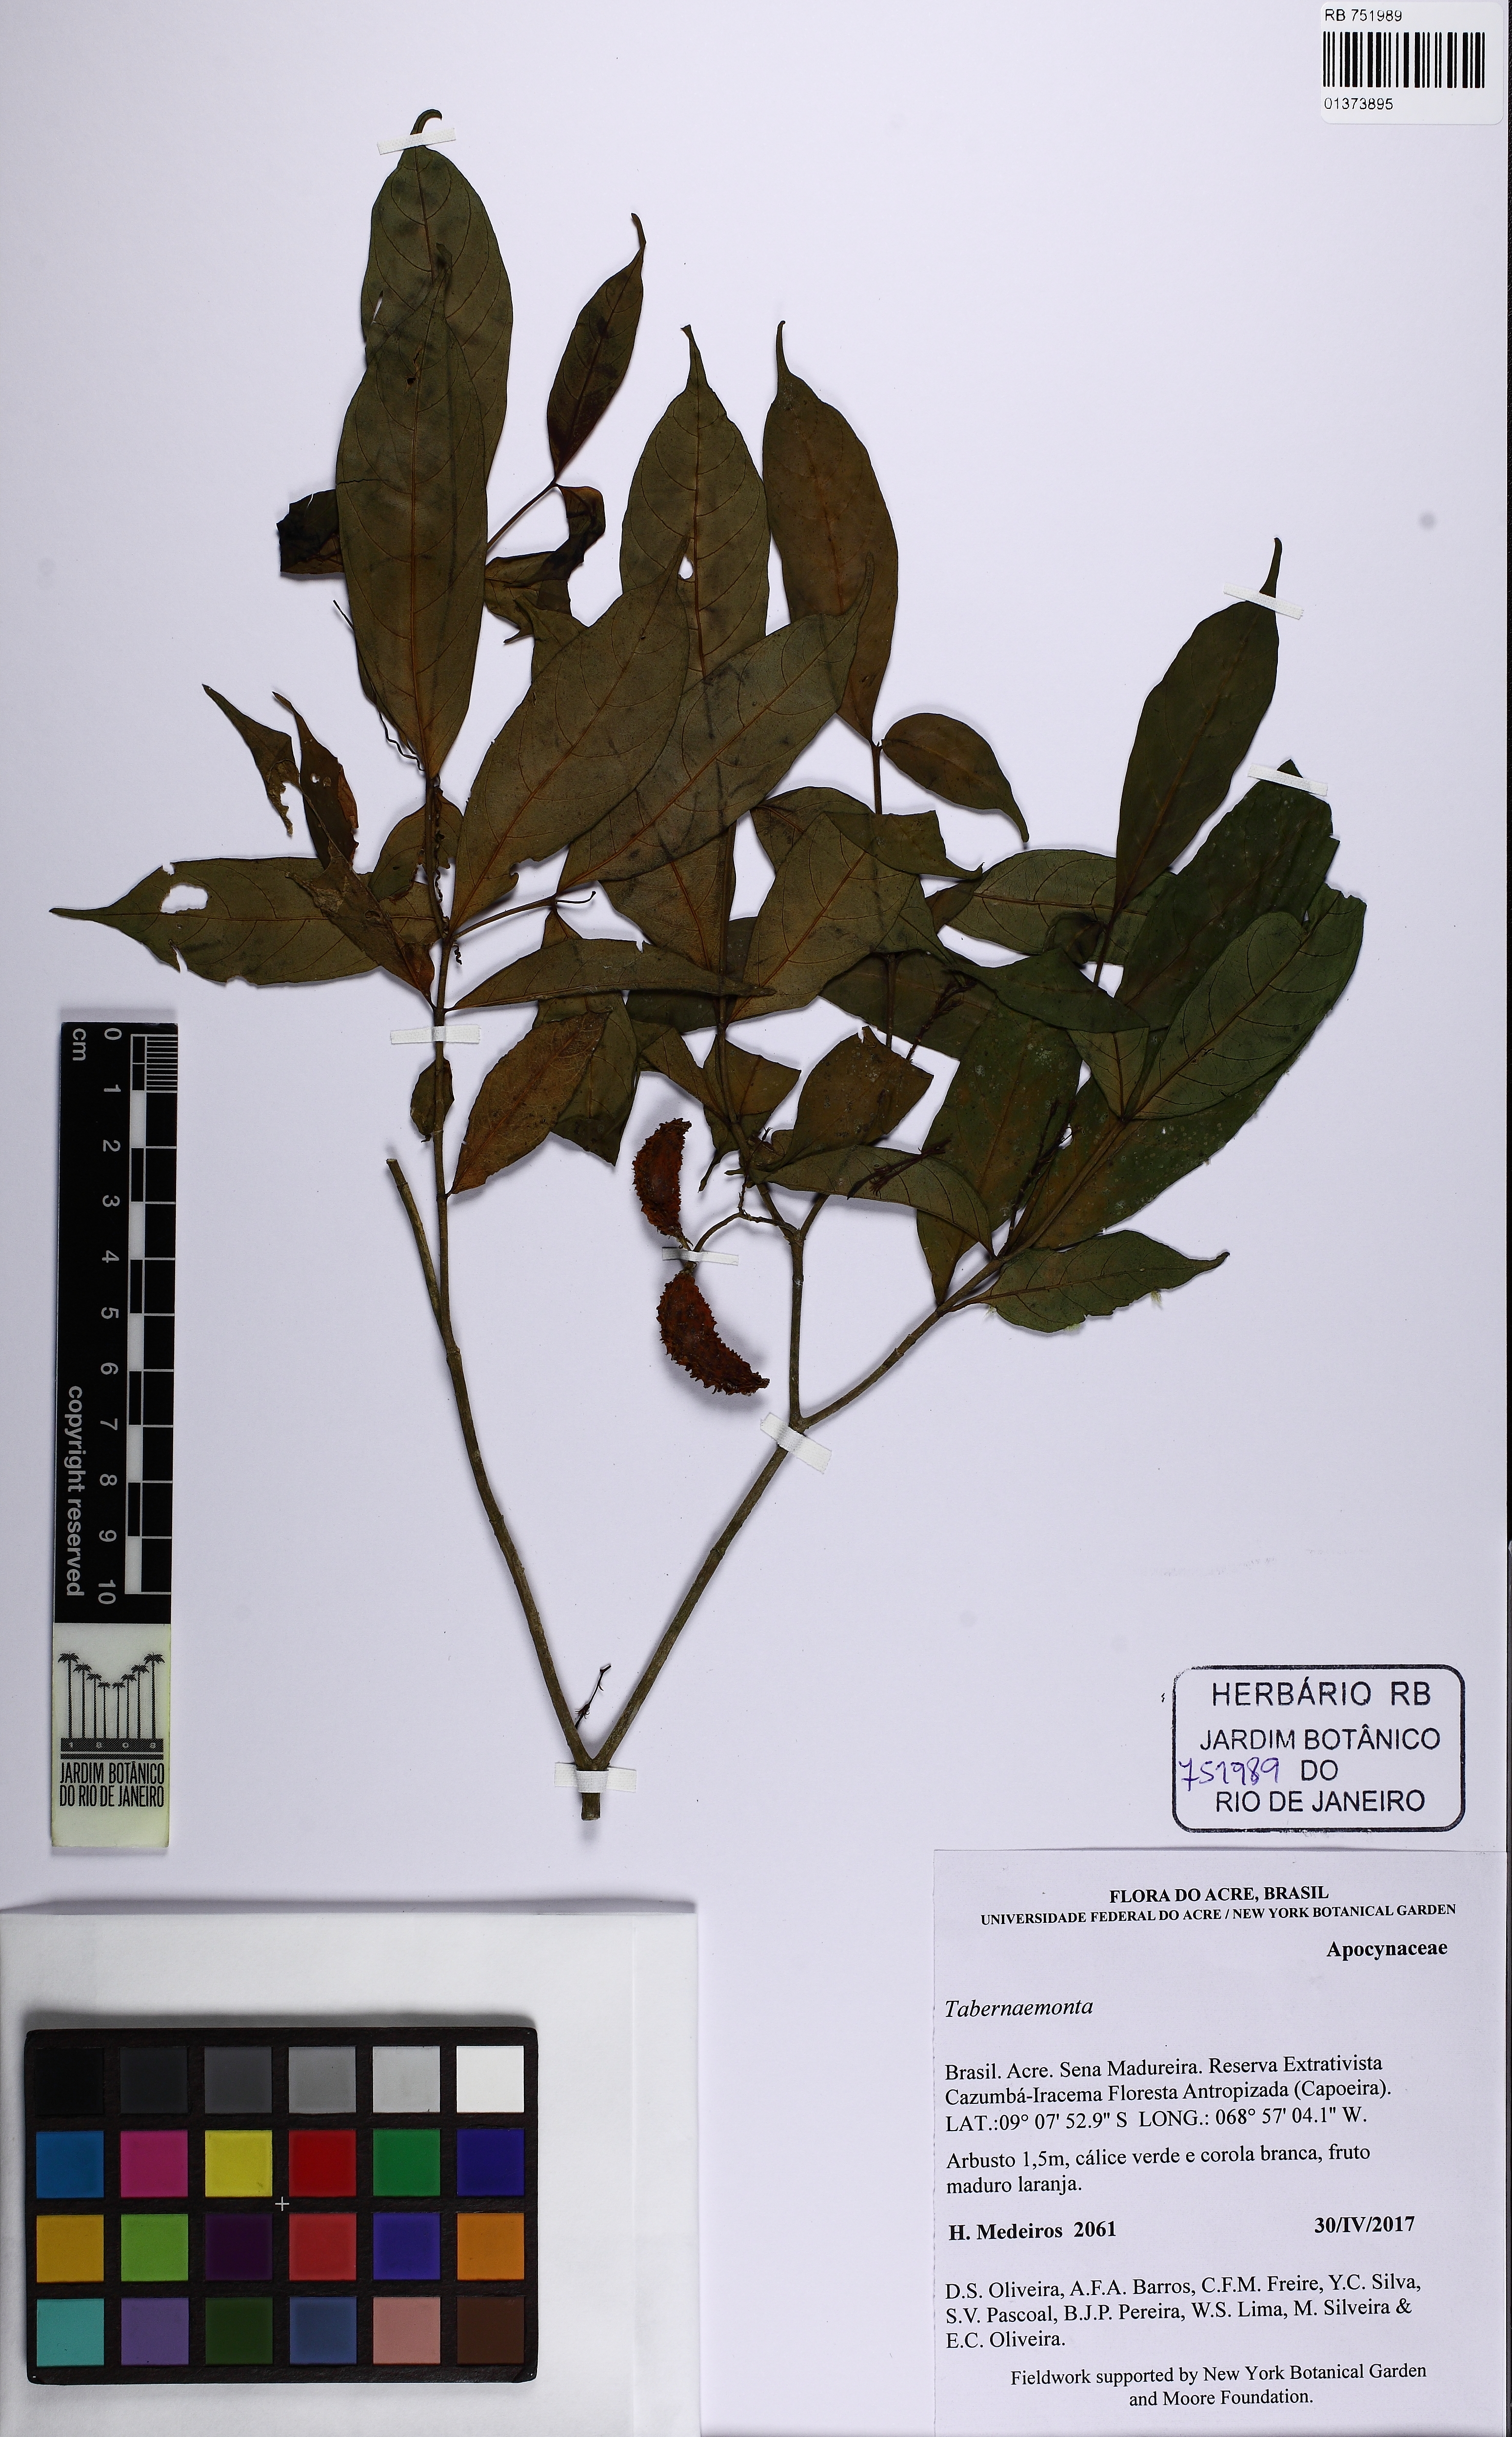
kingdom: Plantae
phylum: Tracheophyta
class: Magnoliopsida
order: Gentianales
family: Apocynaceae
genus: Tabernaemontana
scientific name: Tabernaemontana
